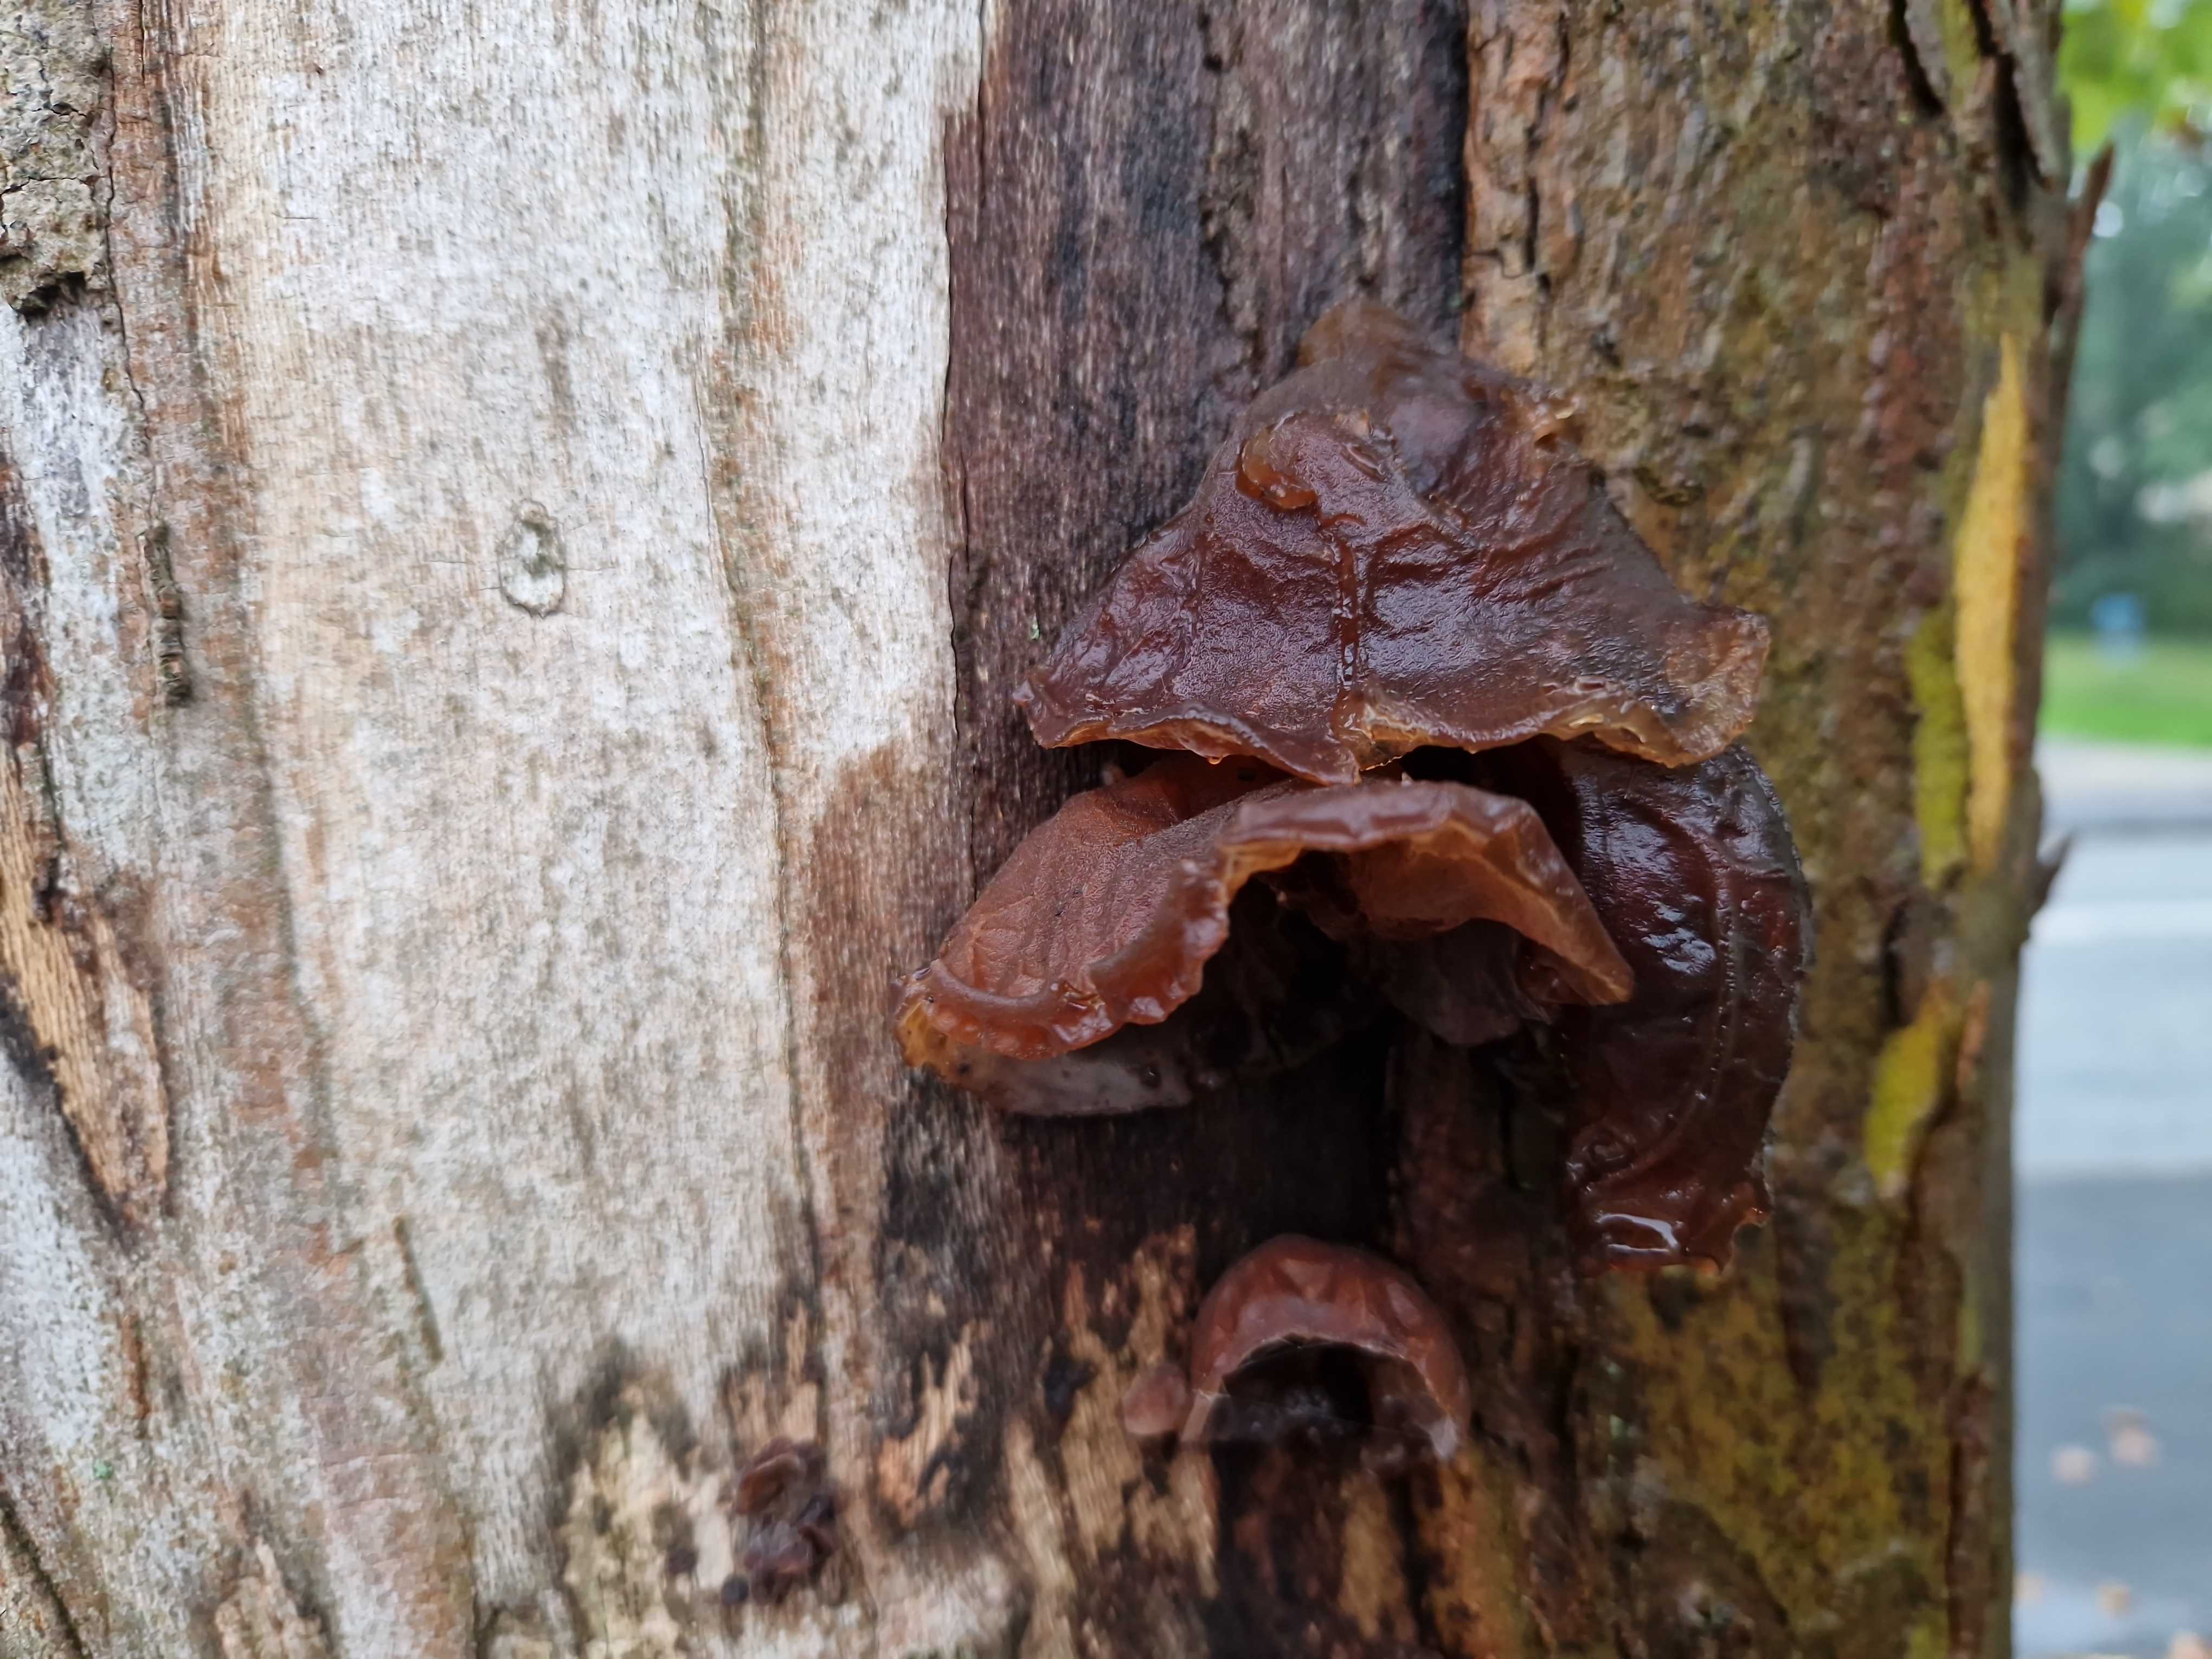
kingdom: Fungi
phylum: Basidiomycota
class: Agaricomycetes
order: Auriculariales
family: Auriculariaceae
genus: Auricularia
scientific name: Auricularia auricula-judae
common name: almindelig judasøre
